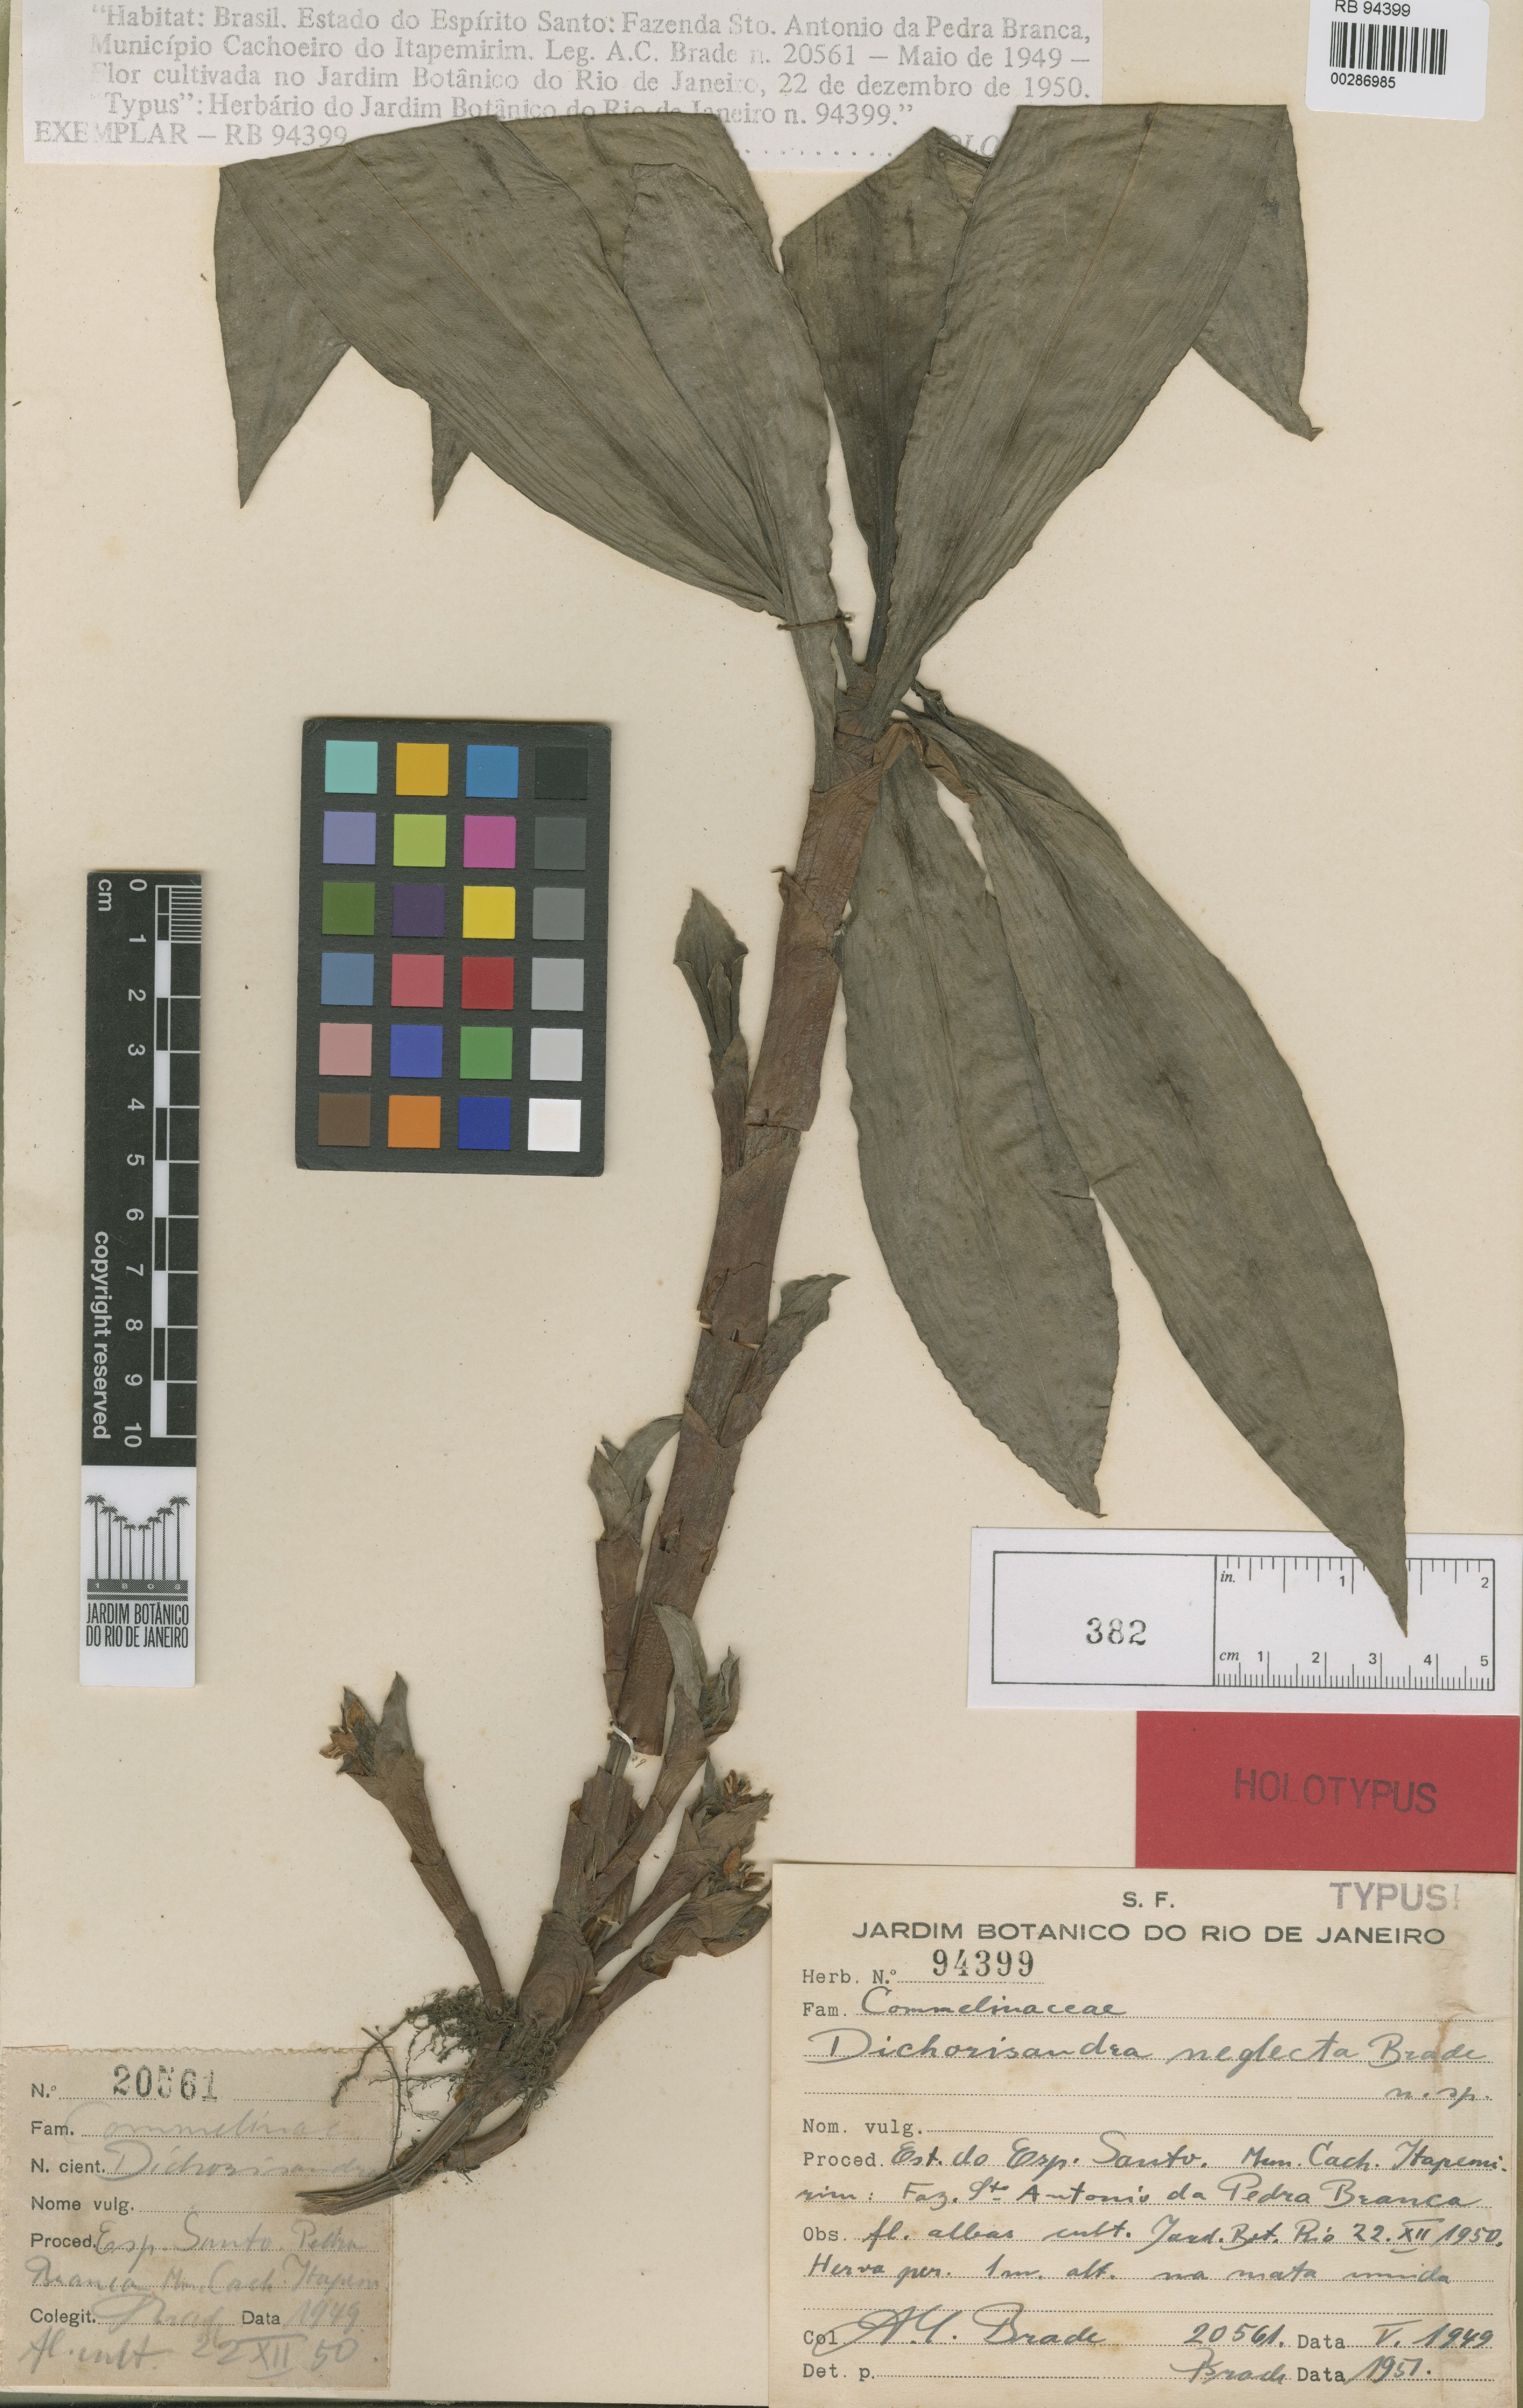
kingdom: Plantae
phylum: Tracheophyta
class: Liliopsida
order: Commelinales
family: Commelinaceae
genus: Dichorisandra
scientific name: Dichorisandra neglecta
